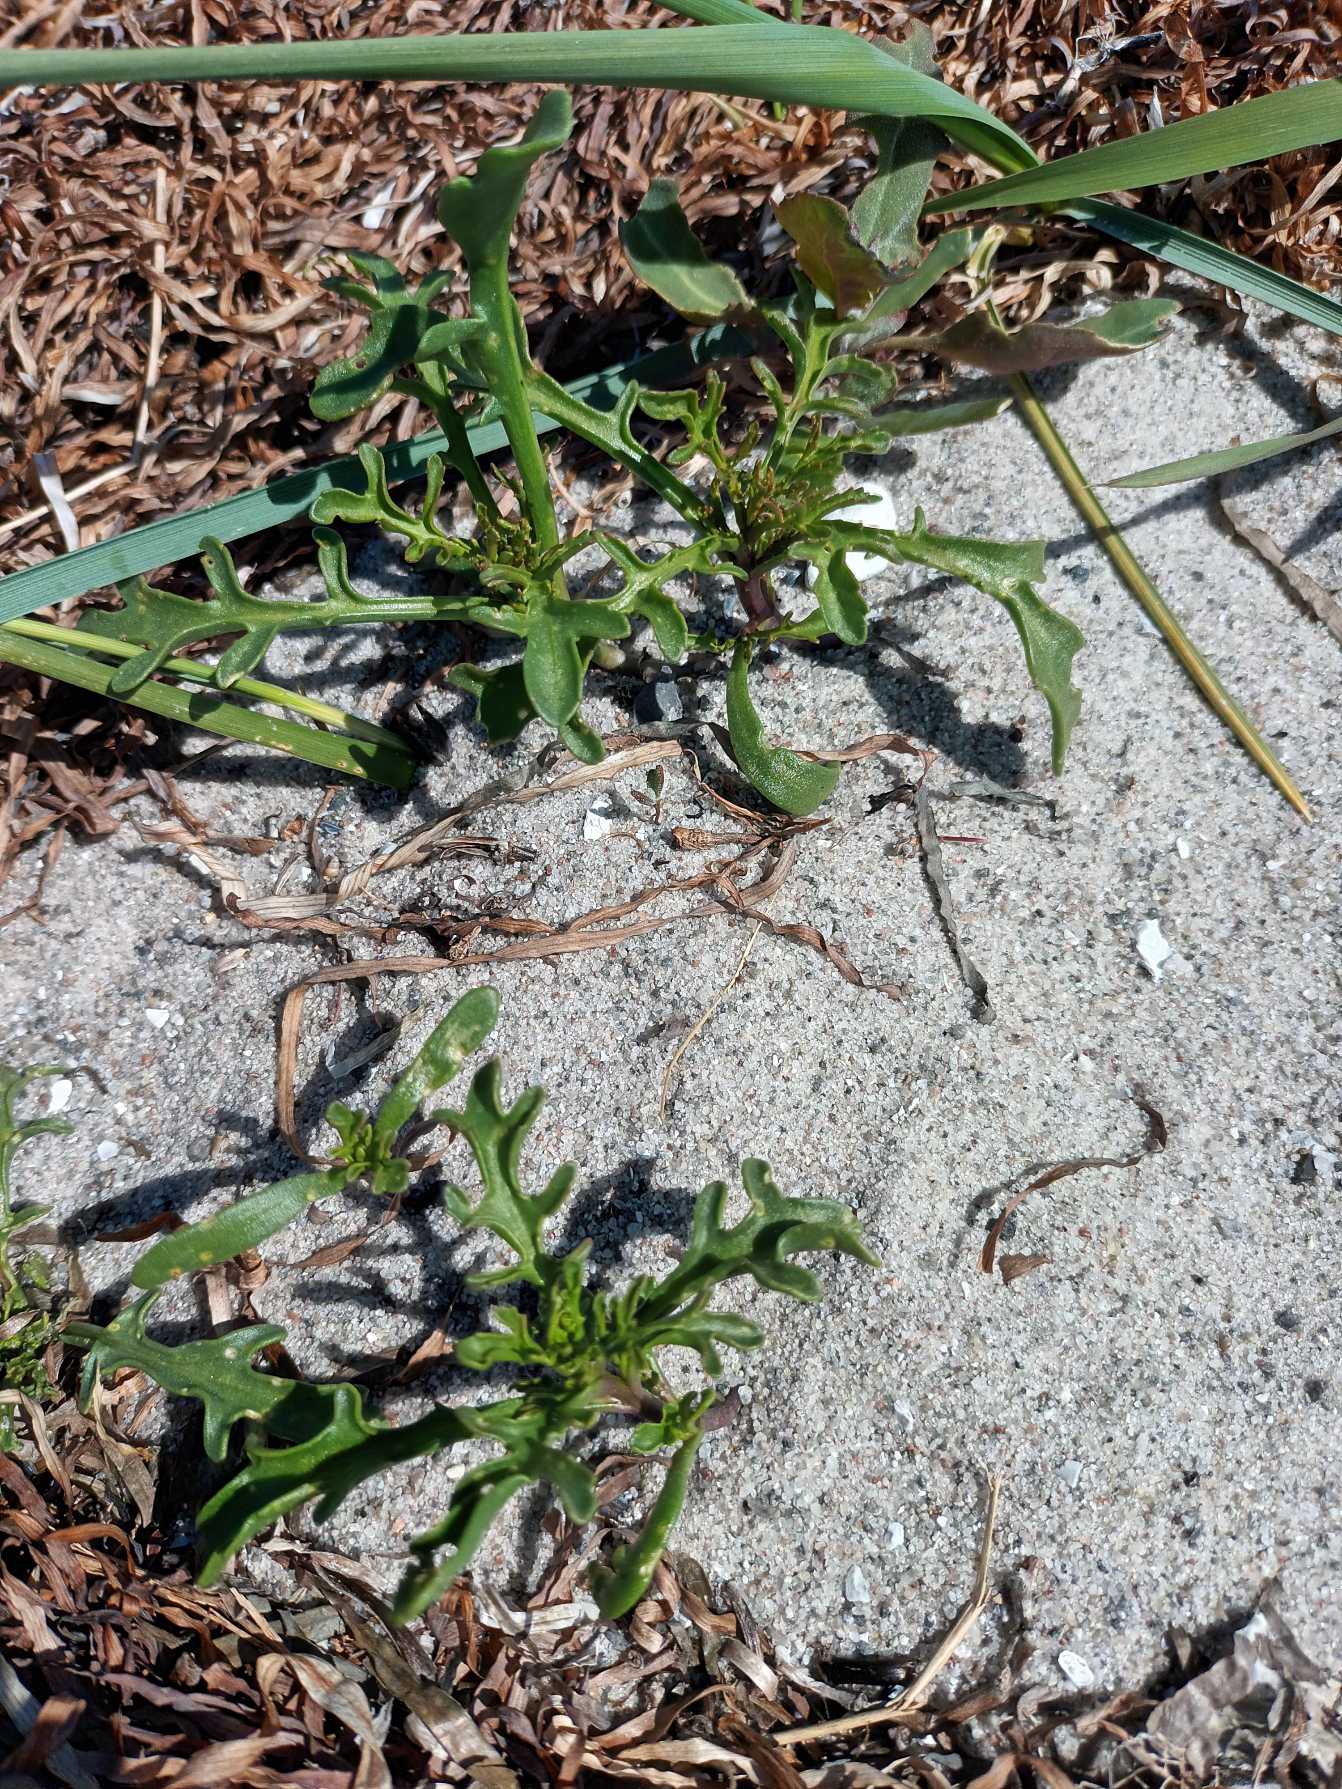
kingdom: Plantae
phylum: Tracheophyta
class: Magnoliopsida
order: Brassicales
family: Brassicaceae
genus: Cakile
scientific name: Cakile maritima
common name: Strandsennep
